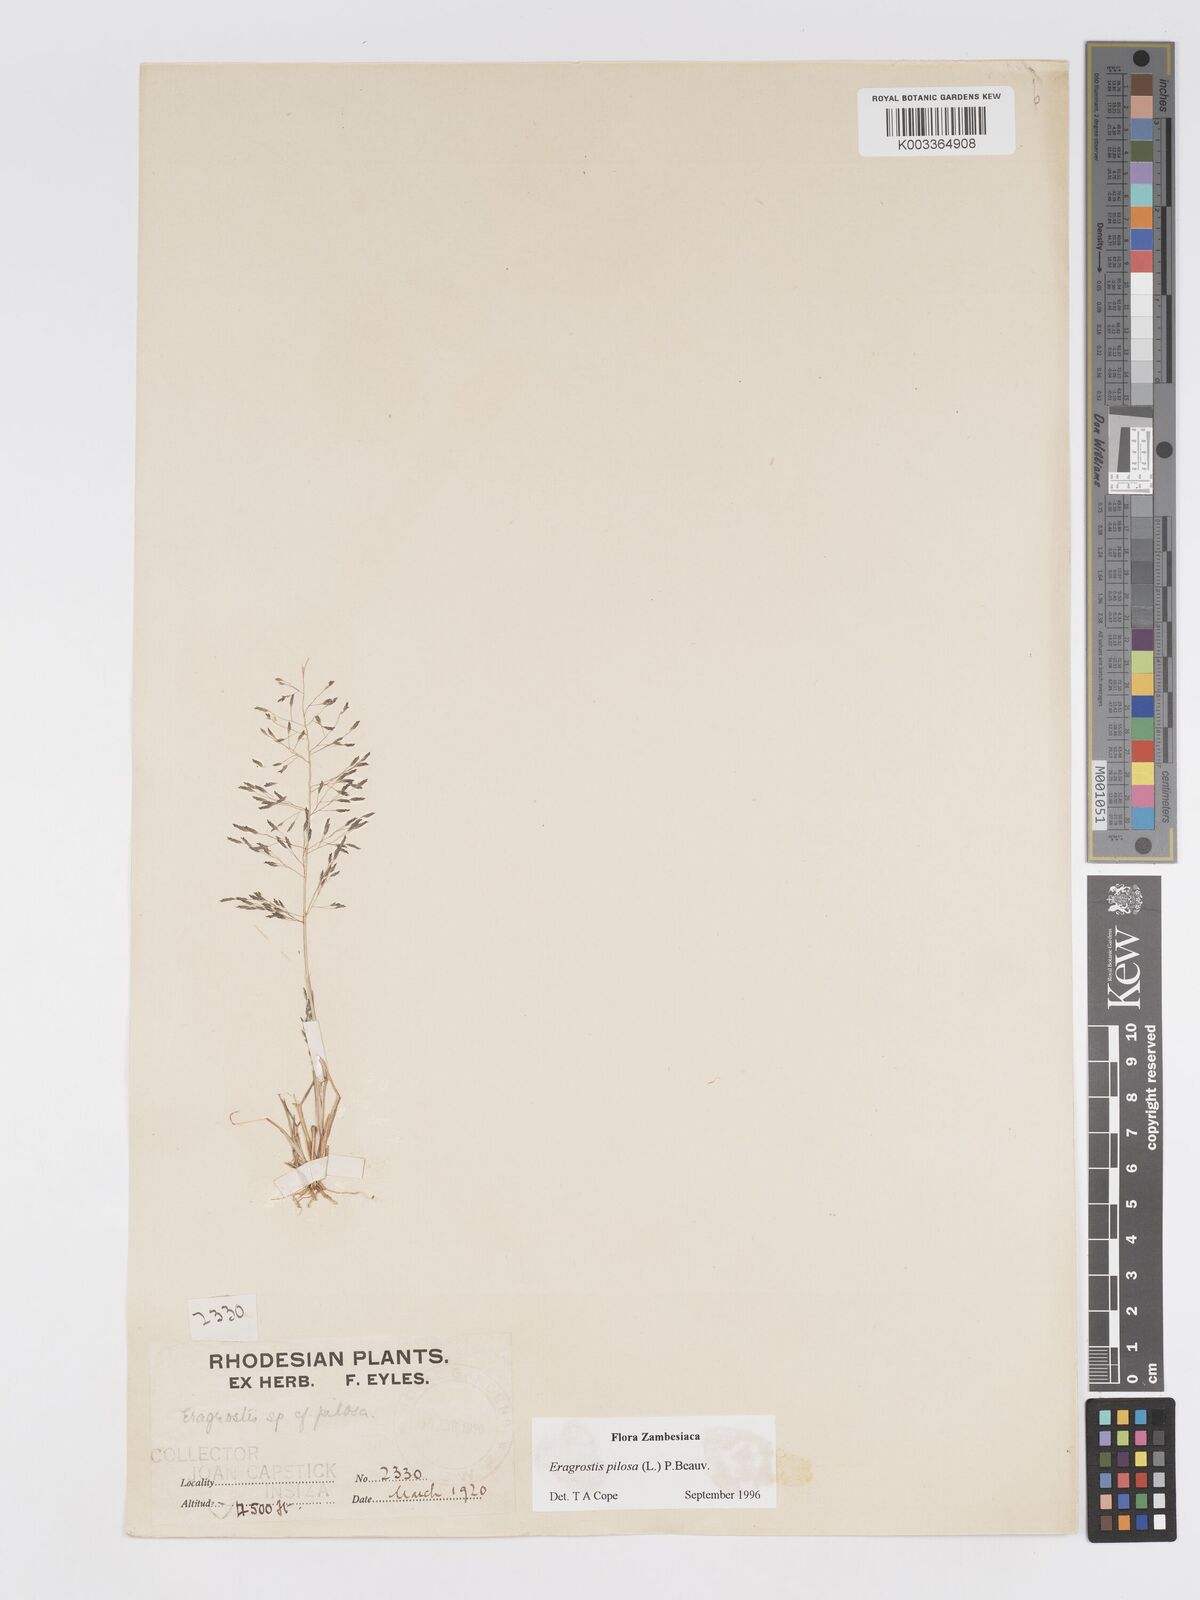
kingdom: Plantae
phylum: Tracheophyta
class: Liliopsida
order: Poales
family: Poaceae
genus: Eragrostis
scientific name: Eragrostis pilosa
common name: Indian lovegrass
